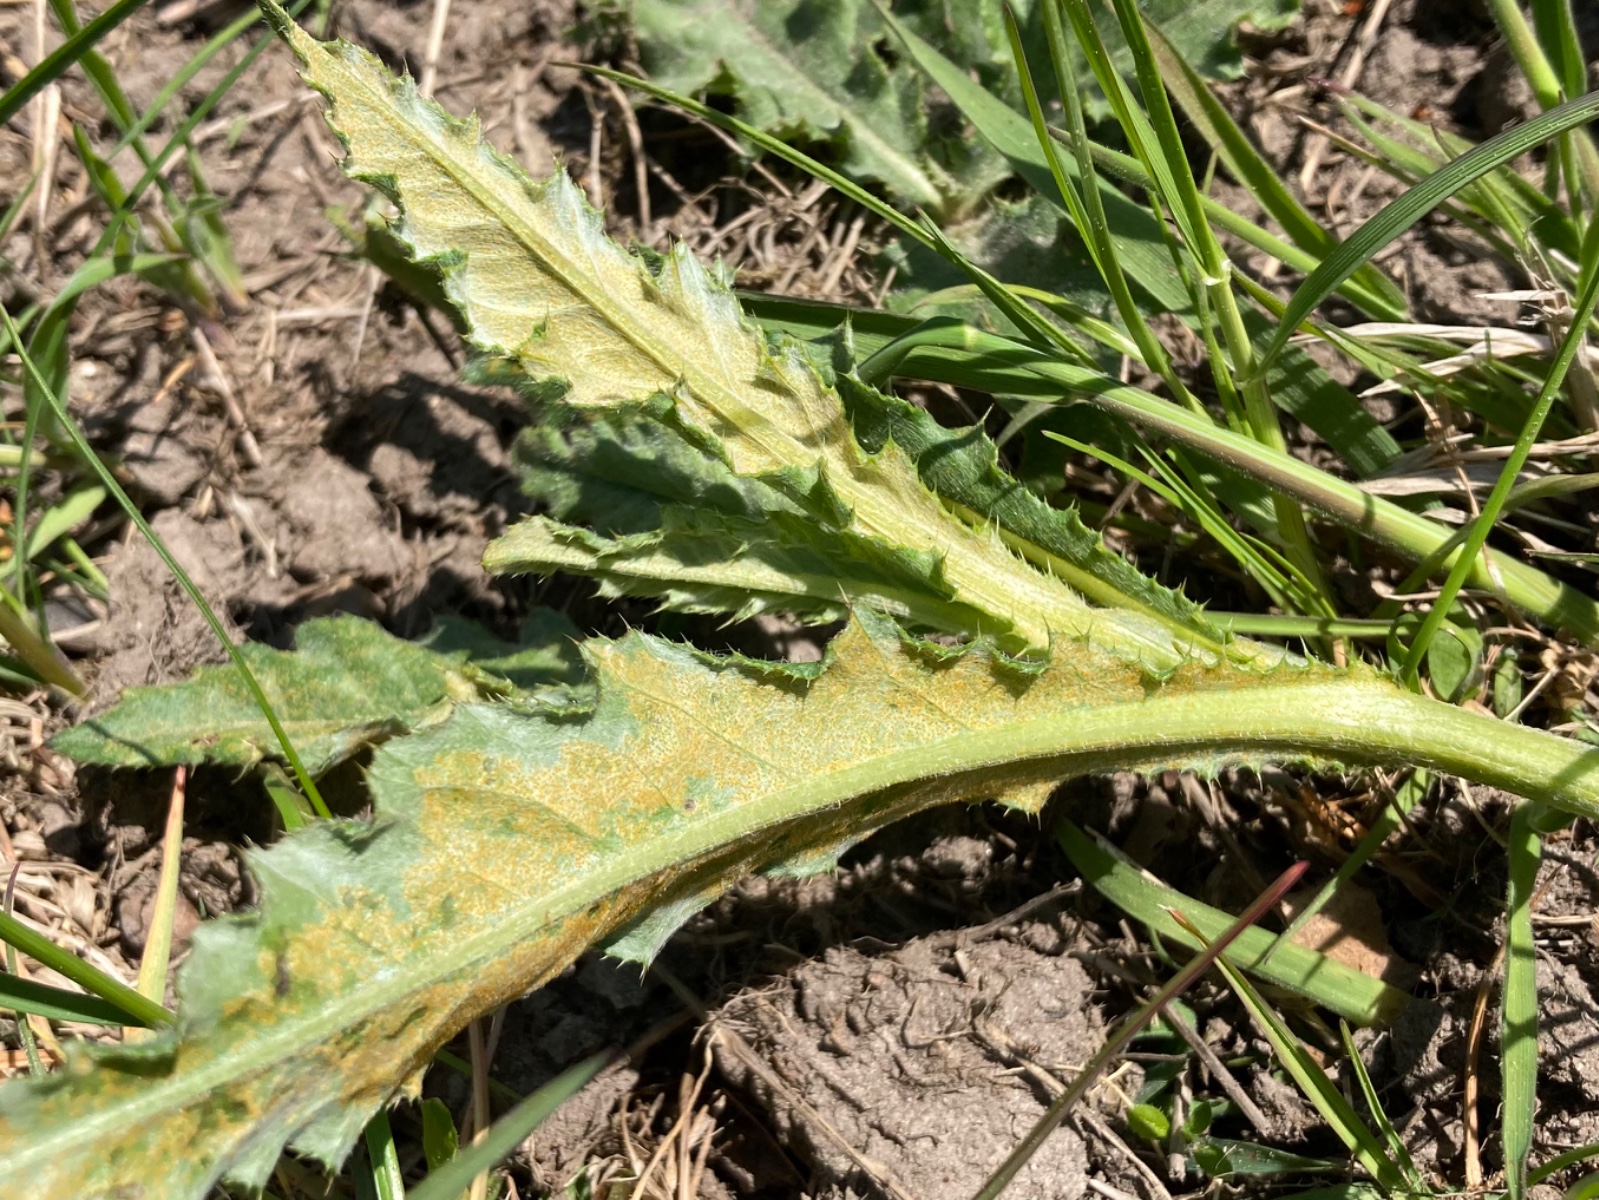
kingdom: Fungi
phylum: Basidiomycota
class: Pucciniomycetes
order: Pucciniales
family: Pucciniaceae
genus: Puccinia
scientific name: Puccinia suaveolens
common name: tidsel-tvecellerust
